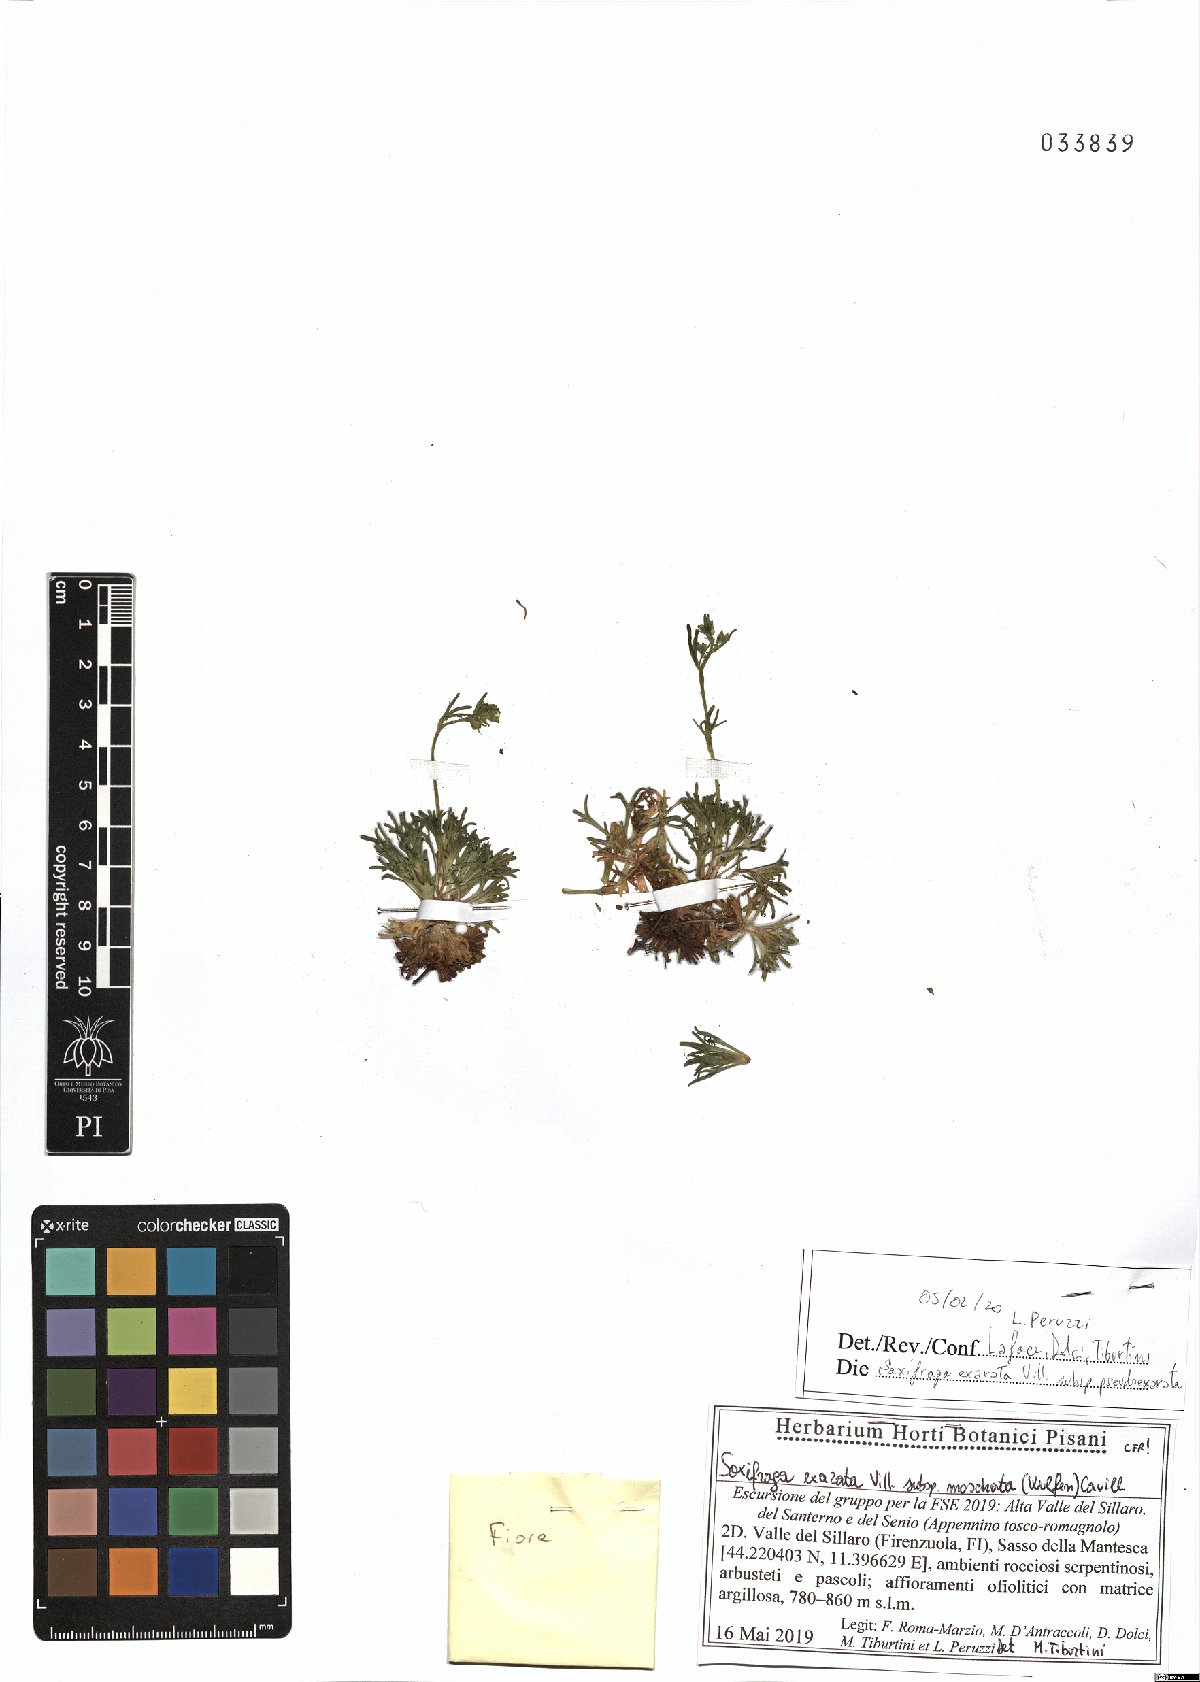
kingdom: Plantae
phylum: Tracheophyta
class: Magnoliopsida
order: Saxifragales
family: Saxifragaceae
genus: Saxifraga
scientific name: Saxifraga moschata
